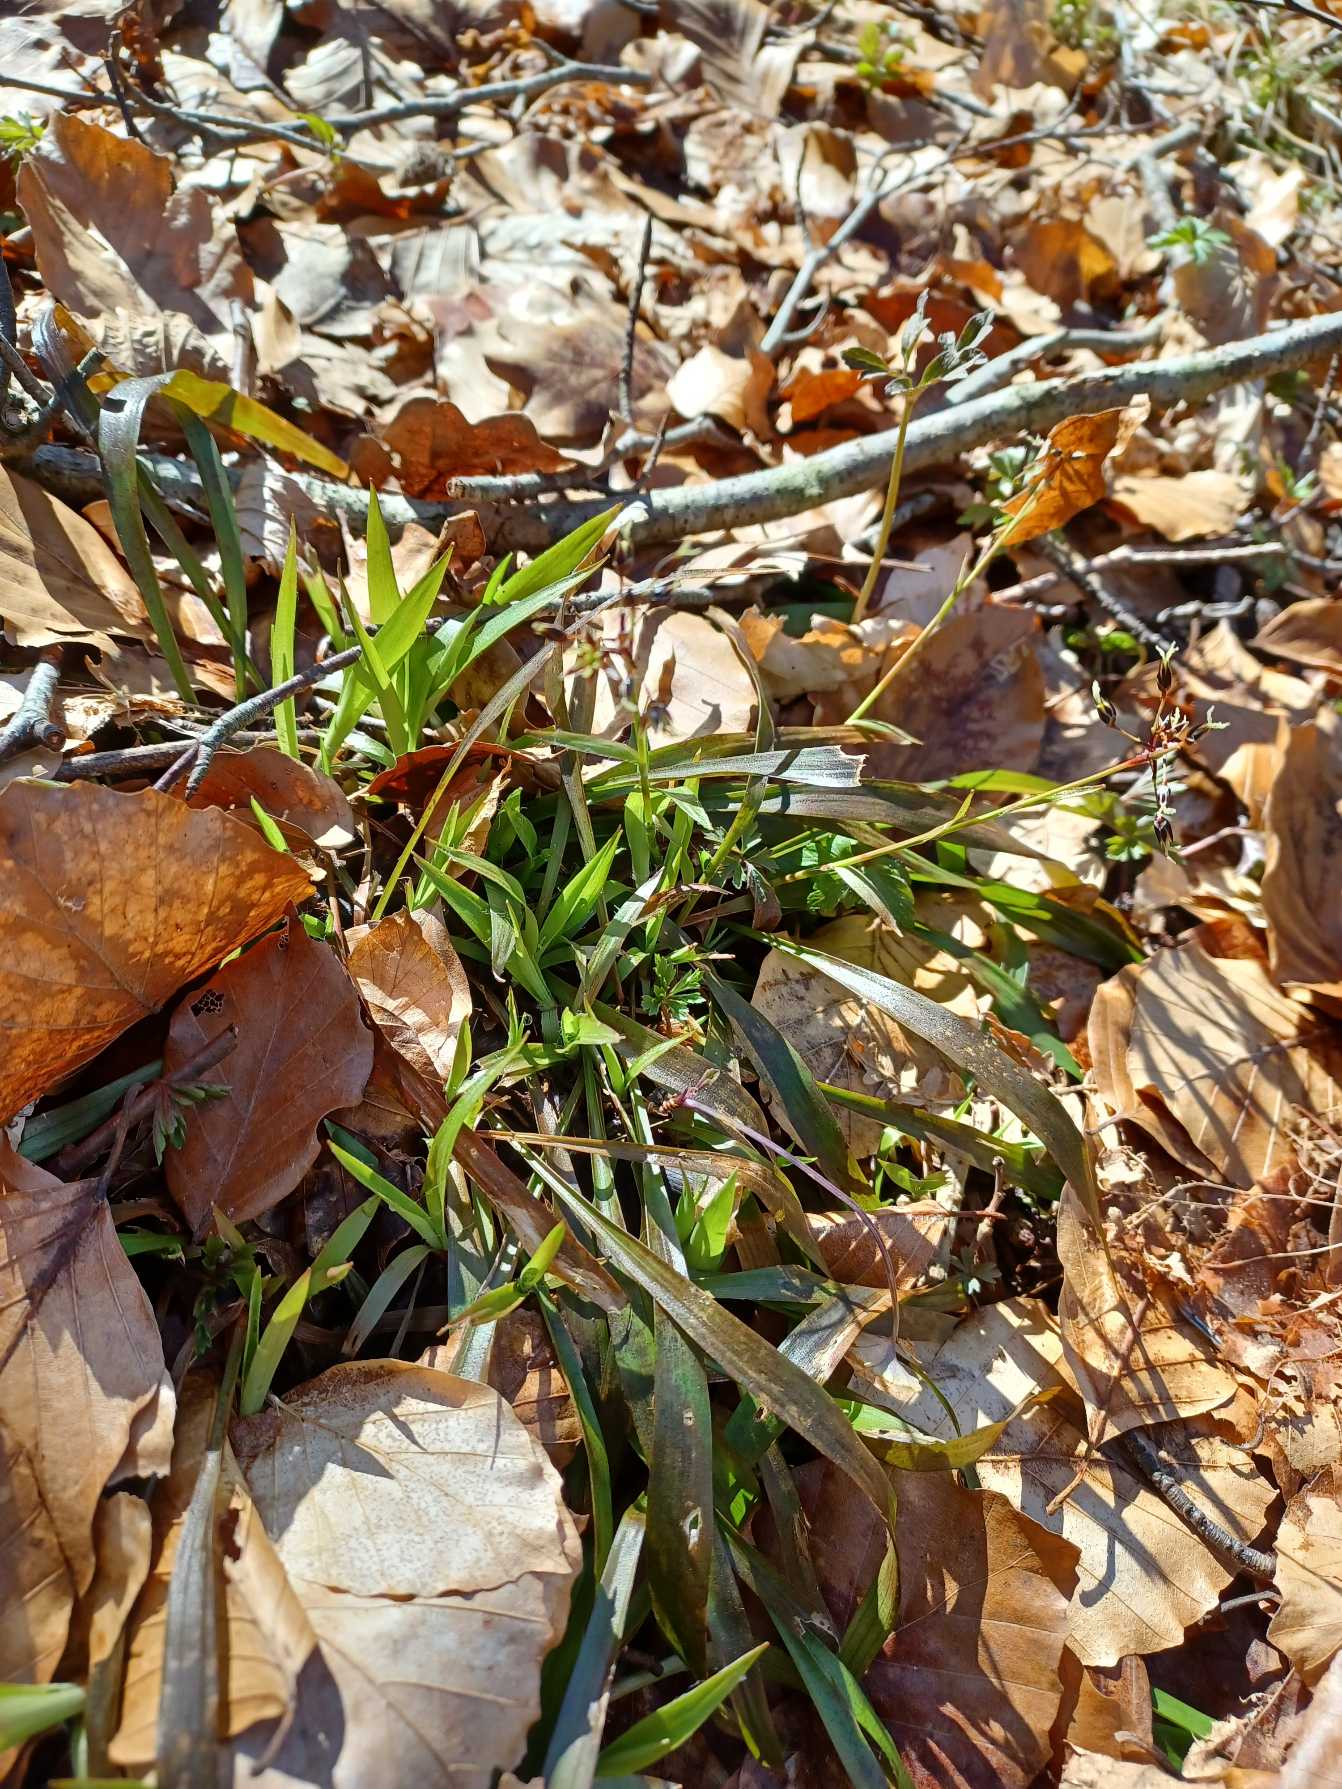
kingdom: Plantae
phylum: Tracheophyta
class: Liliopsida
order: Poales
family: Juncaceae
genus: Luzula
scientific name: Luzula pilosa
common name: Håret frytle
